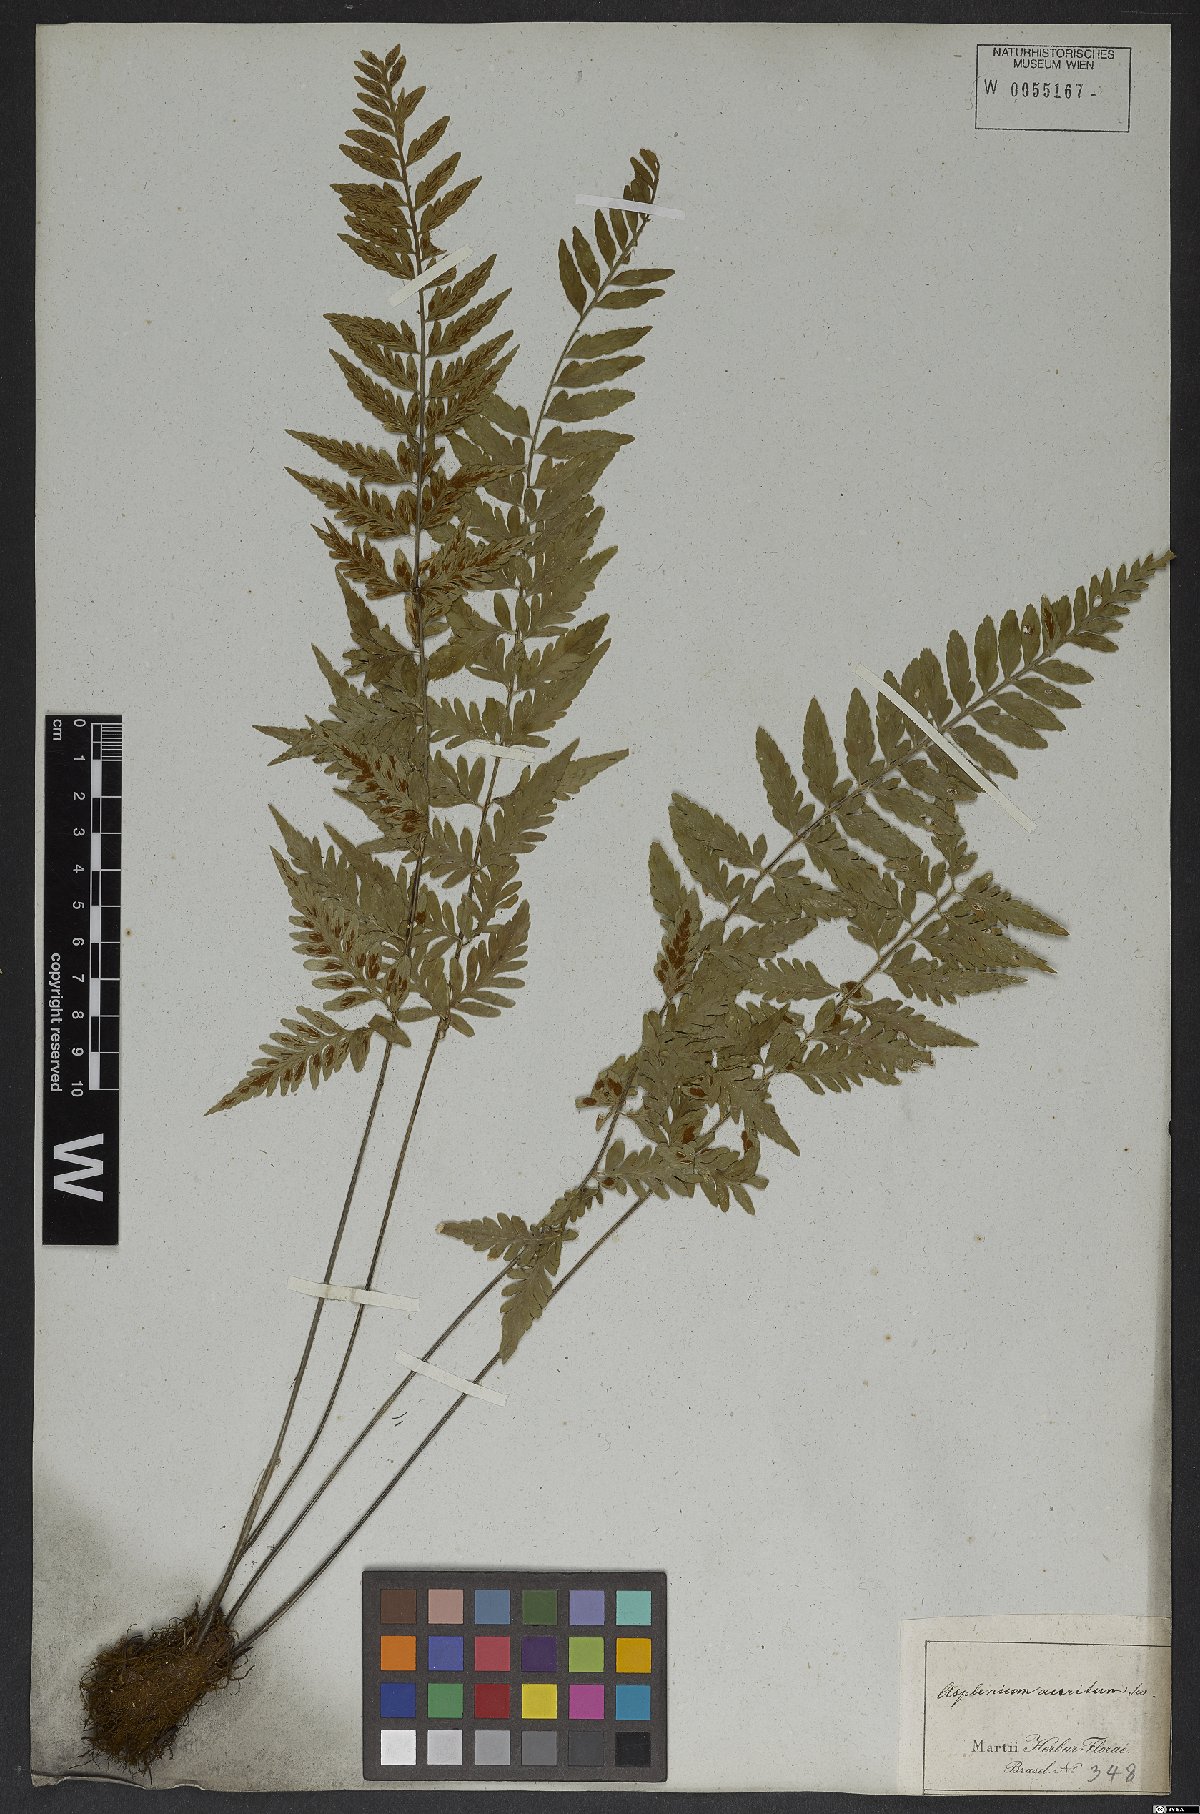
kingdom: Plantae
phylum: Tracheophyta
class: Polypodiopsida
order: Polypodiales
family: Aspleniaceae
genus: Asplenium
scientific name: Asplenium sulcatum
